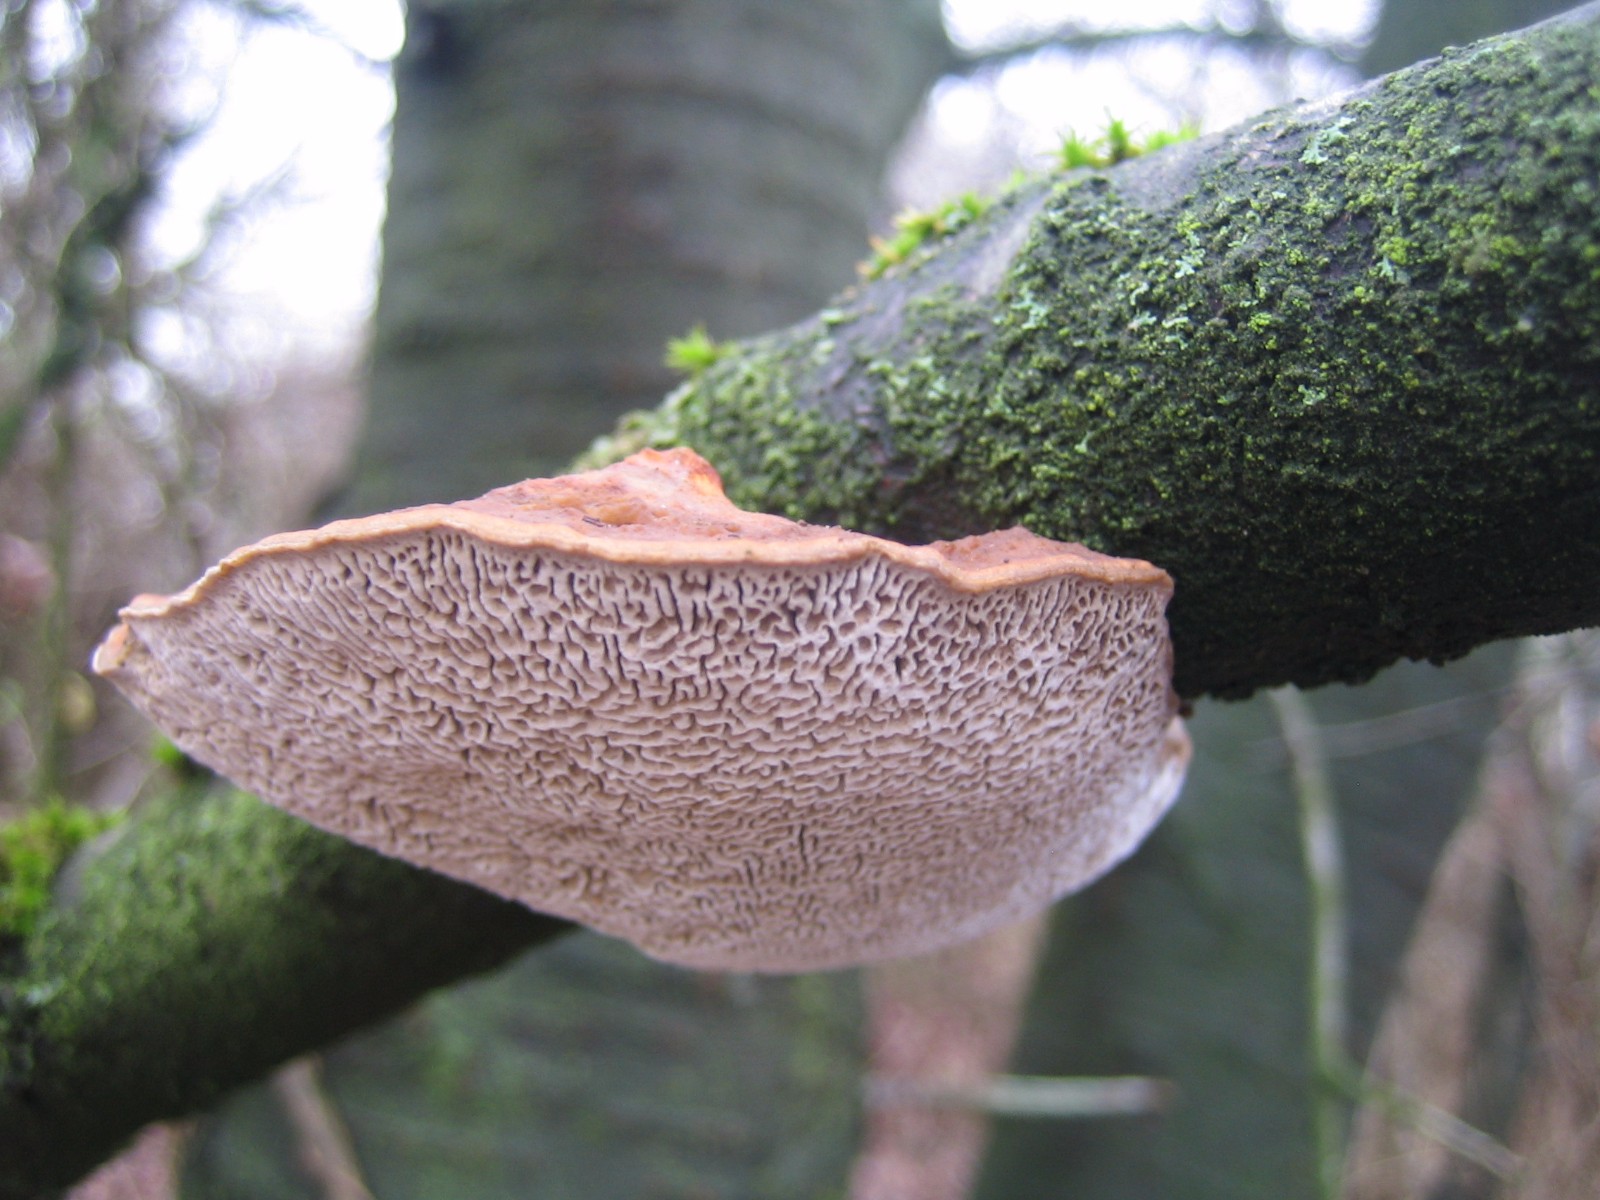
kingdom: Fungi
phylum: Basidiomycota
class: Agaricomycetes
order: Polyporales
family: Polyporaceae
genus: Daedaleopsis
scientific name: Daedaleopsis confragosa
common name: rødmende læderporesvamp
